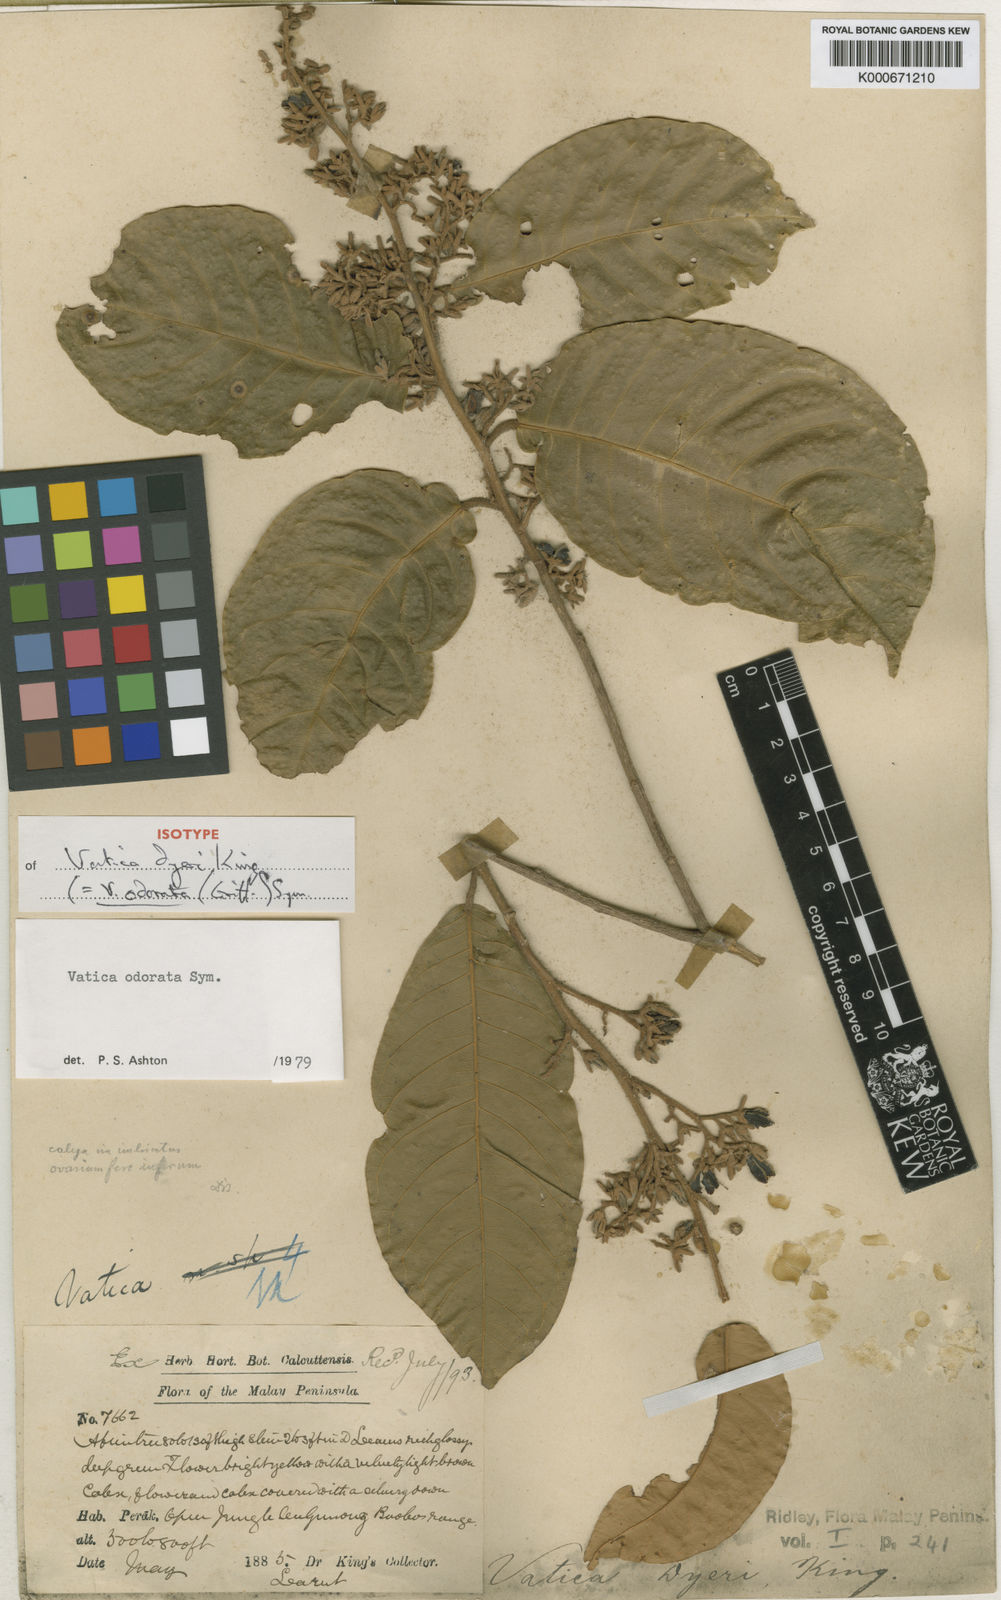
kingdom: Plantae
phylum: Tracheophyta
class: Magnoliopsida
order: Malvales
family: Dipterocarpaceae
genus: Vatica
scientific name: Vatica odorata
